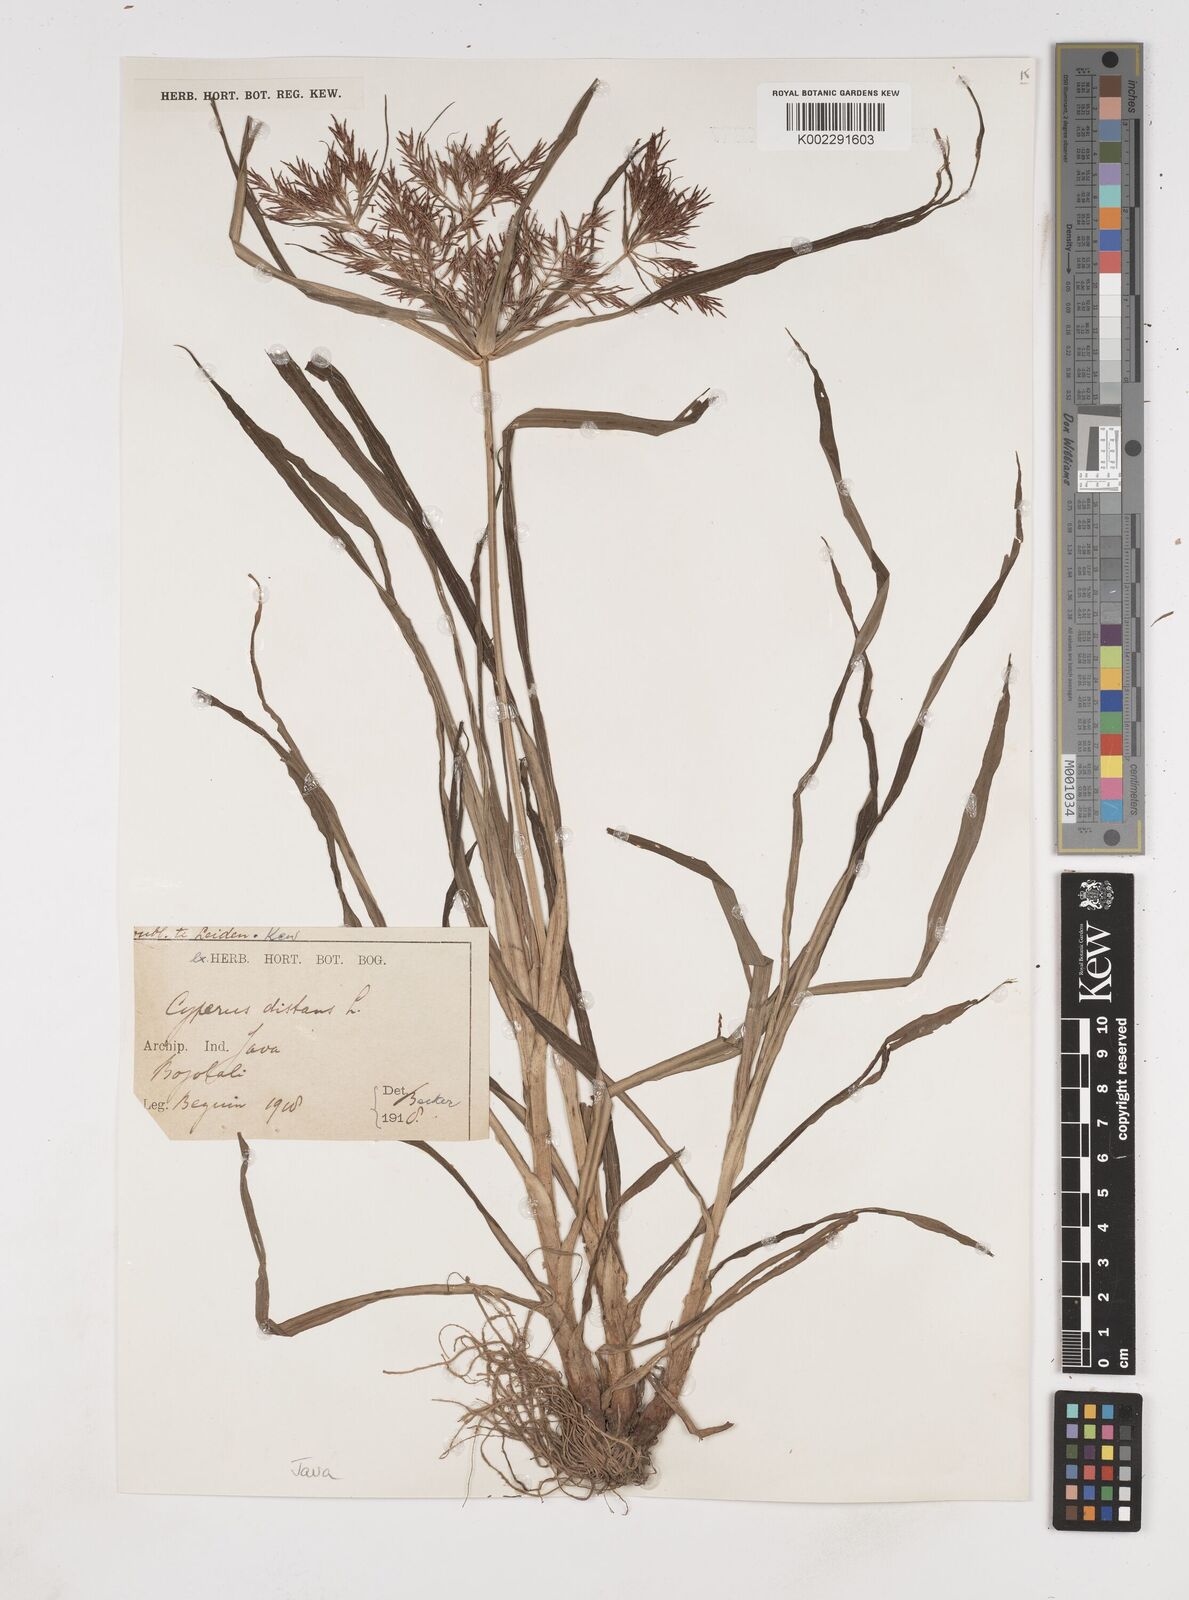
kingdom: Plantae
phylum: Tracheophyta
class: Liliopsida
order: Poales
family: Cyperaceae
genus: Cyperus
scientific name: Cyperus distans
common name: Slender cyperus
